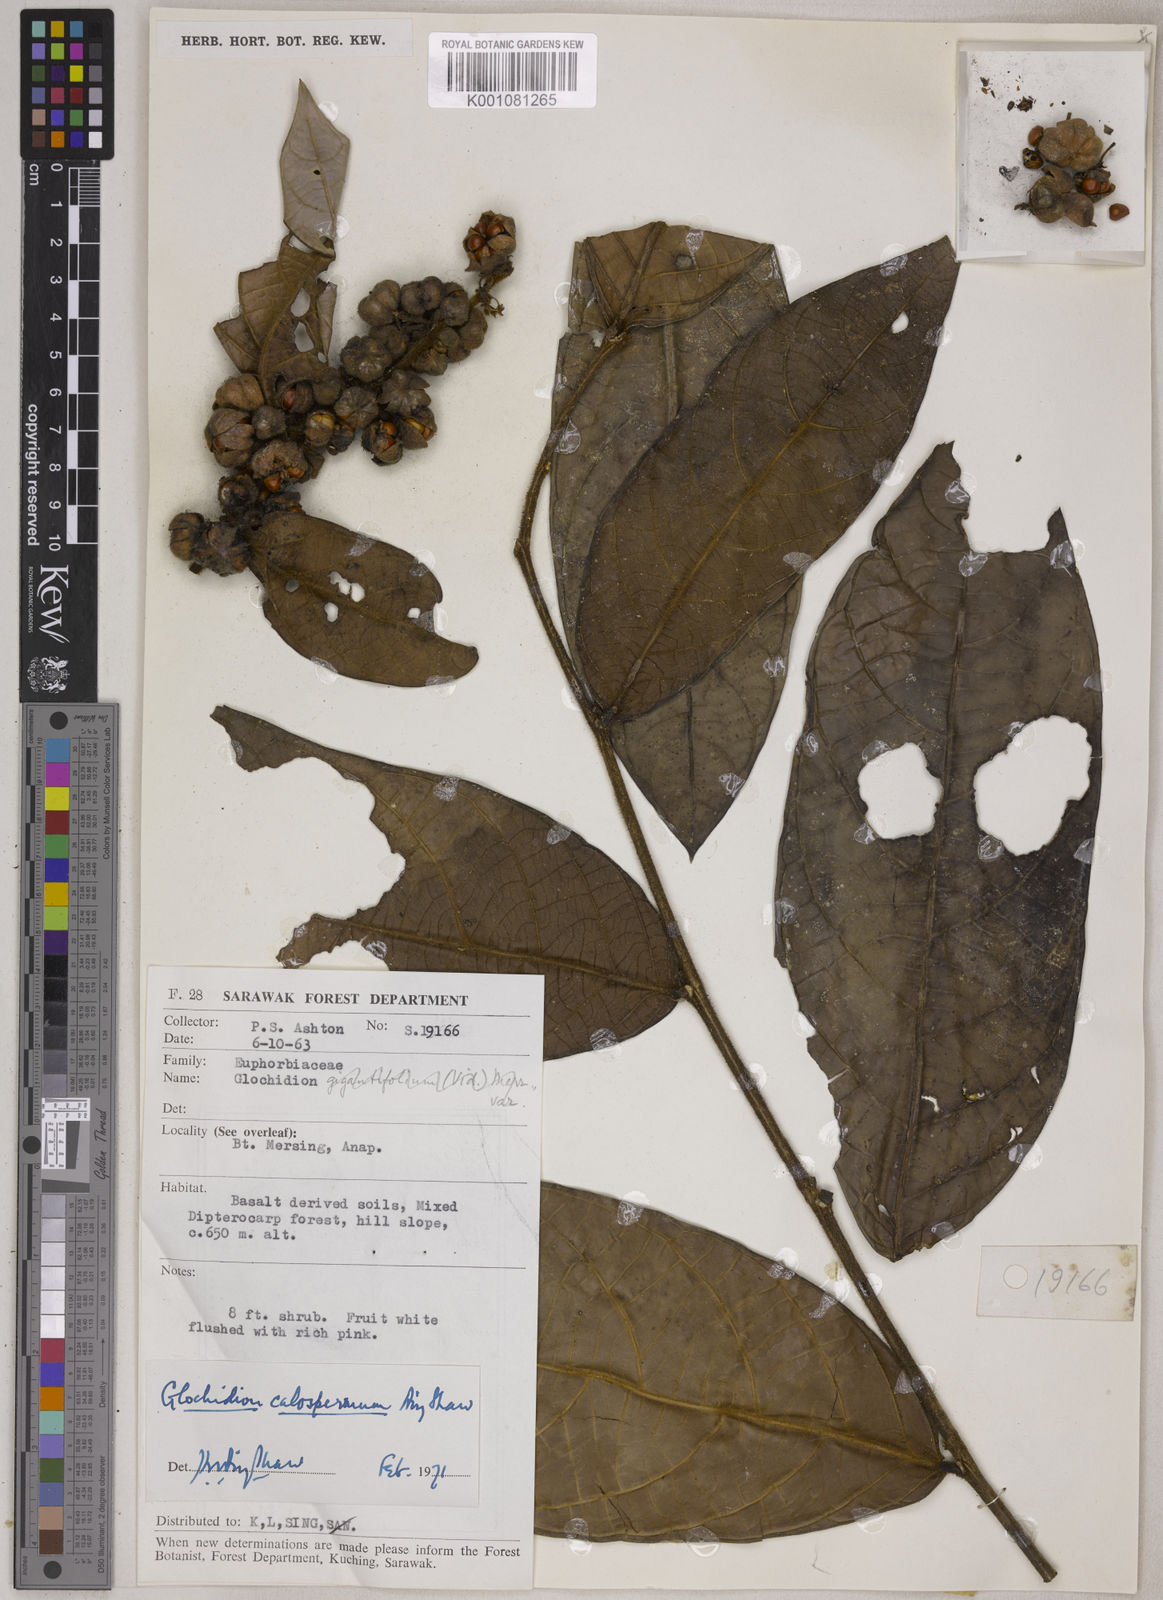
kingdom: Plantae
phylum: Tracheophyta
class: Magnoliopsida
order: Malpighiales
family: Phyllanthaceae
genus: Glochidion
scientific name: Glochidion calospermum
